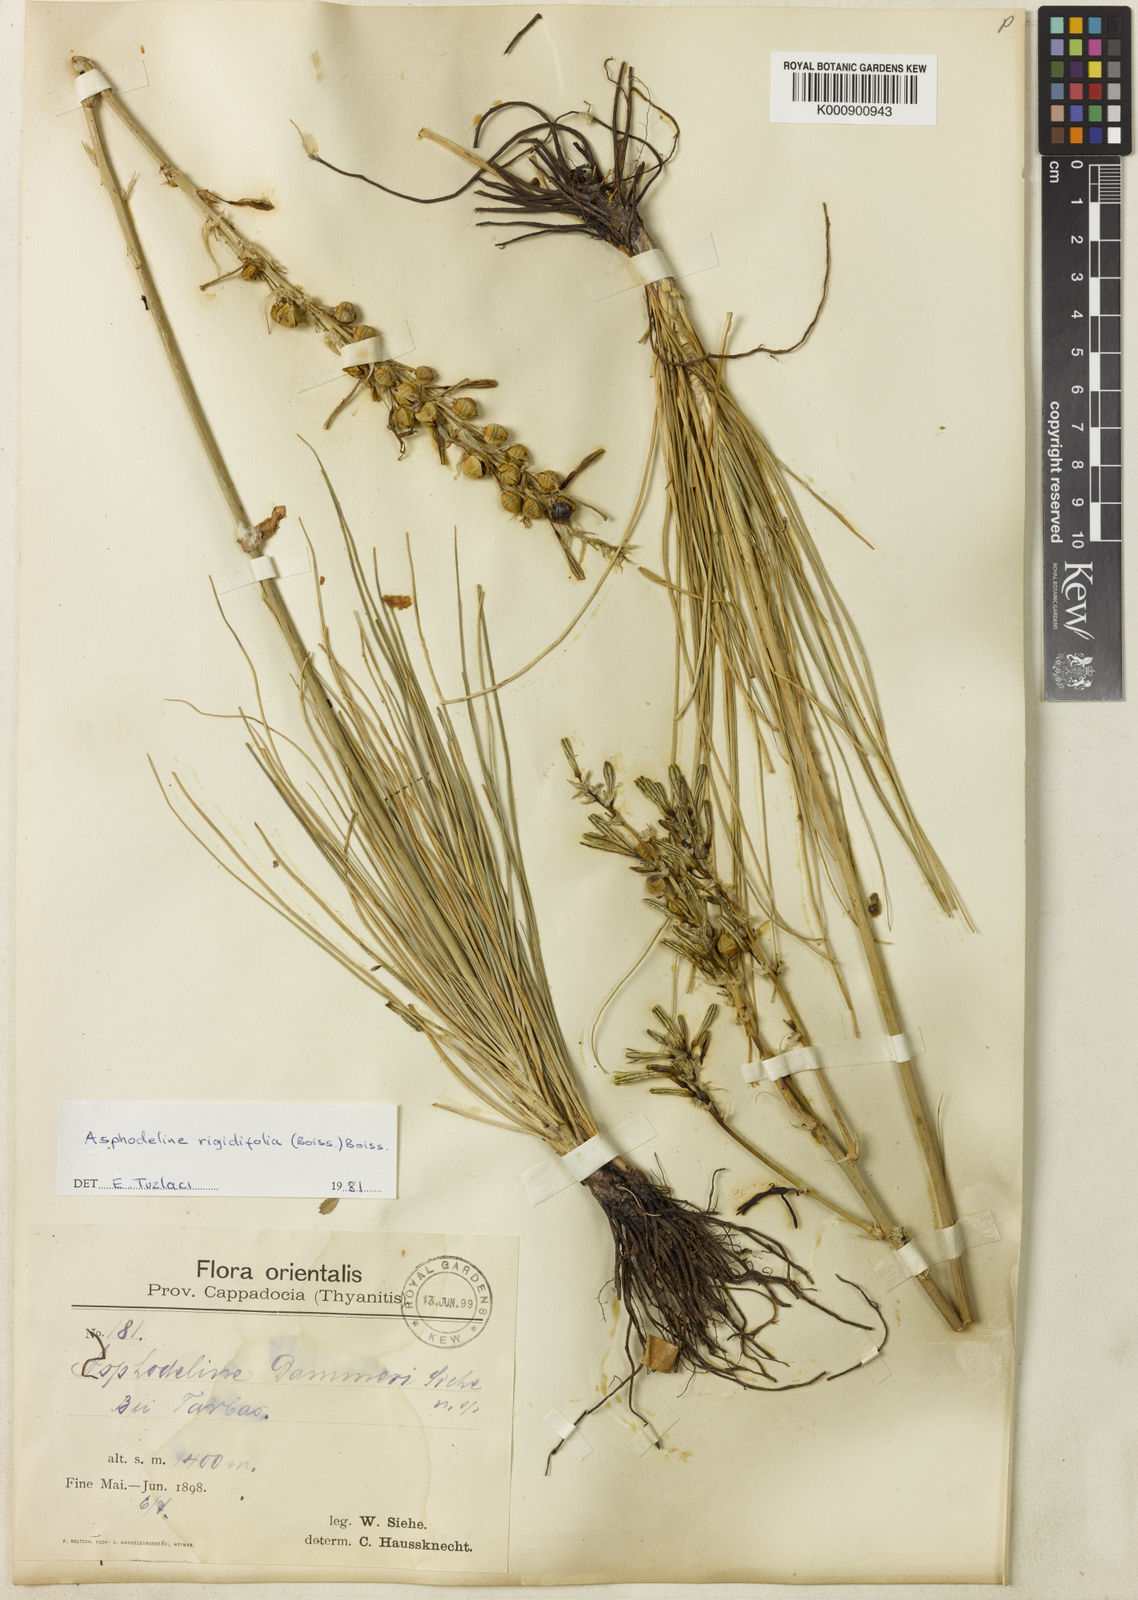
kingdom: Plantae
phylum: Tracheophyta
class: Liliopsida
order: Asparagales
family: Asphodelaceae
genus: Asphodeline
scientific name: Asphodeline rigidifolia
